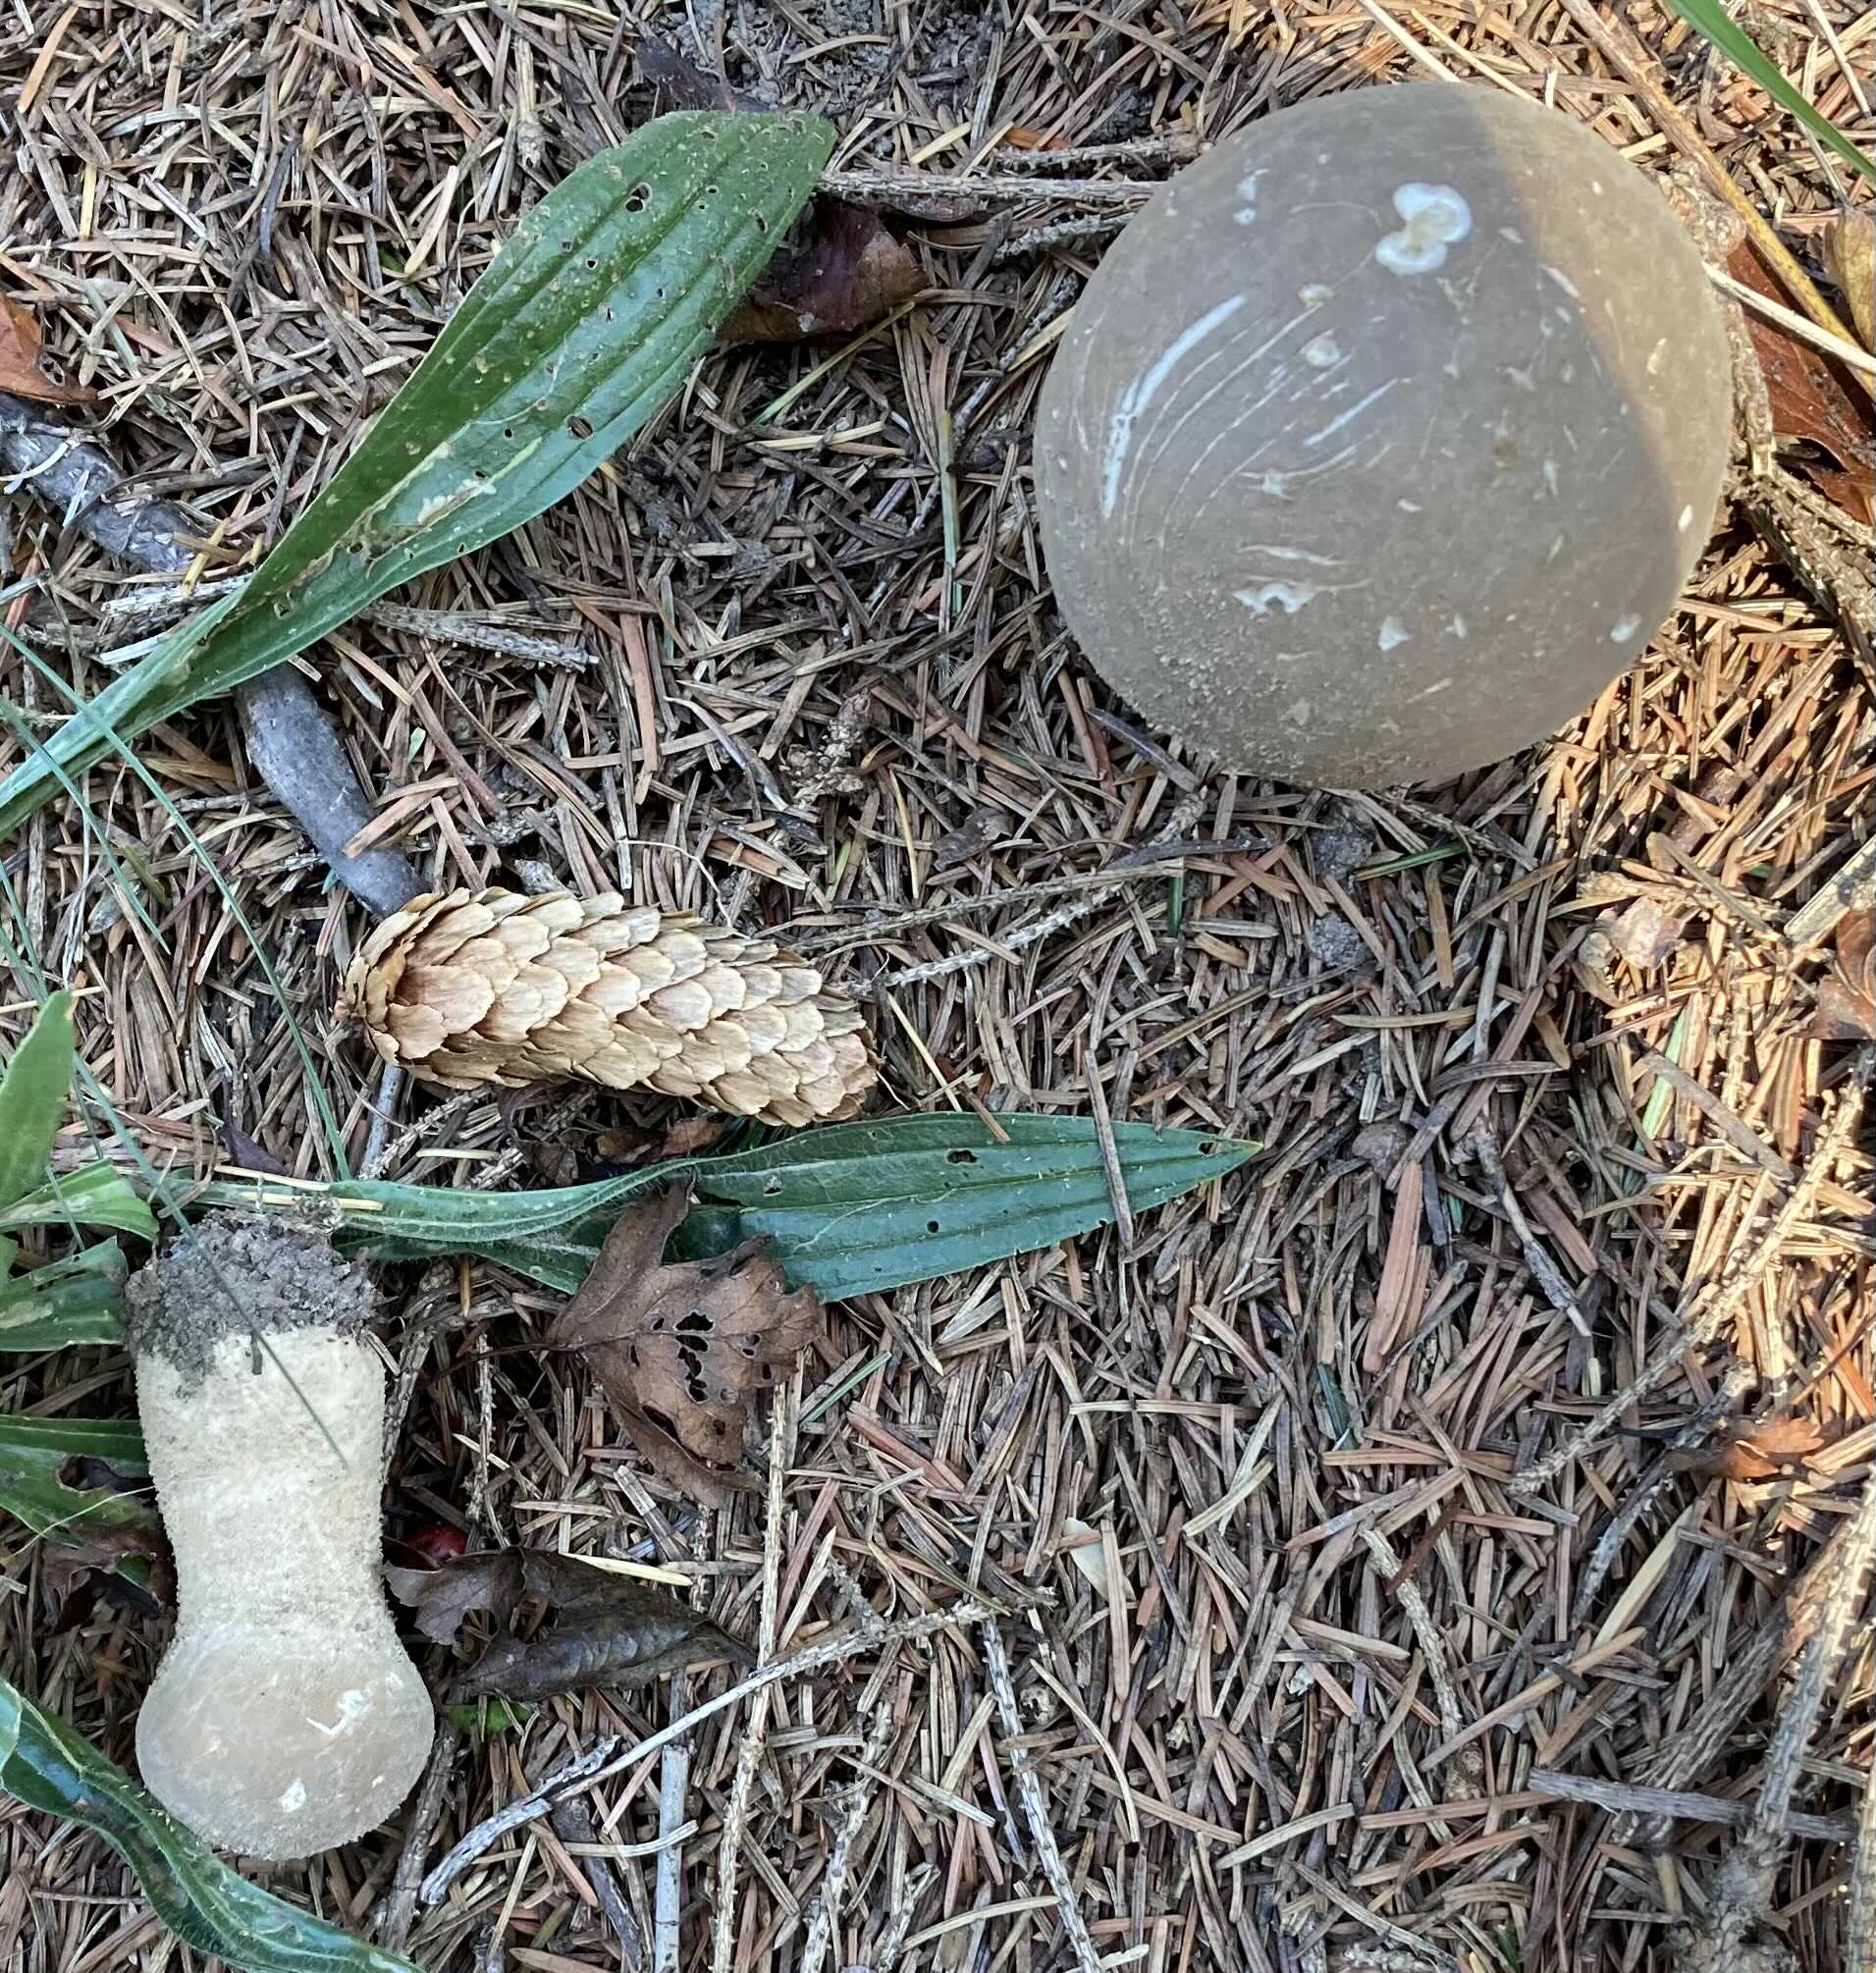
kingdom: Fungi
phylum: Basidiomycota
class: Agaricomycetes
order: Agaricales
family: Lycoperdaceae
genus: Lycoperdon
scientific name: Lycoperdon excipuliforme
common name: højstokket støvbold
